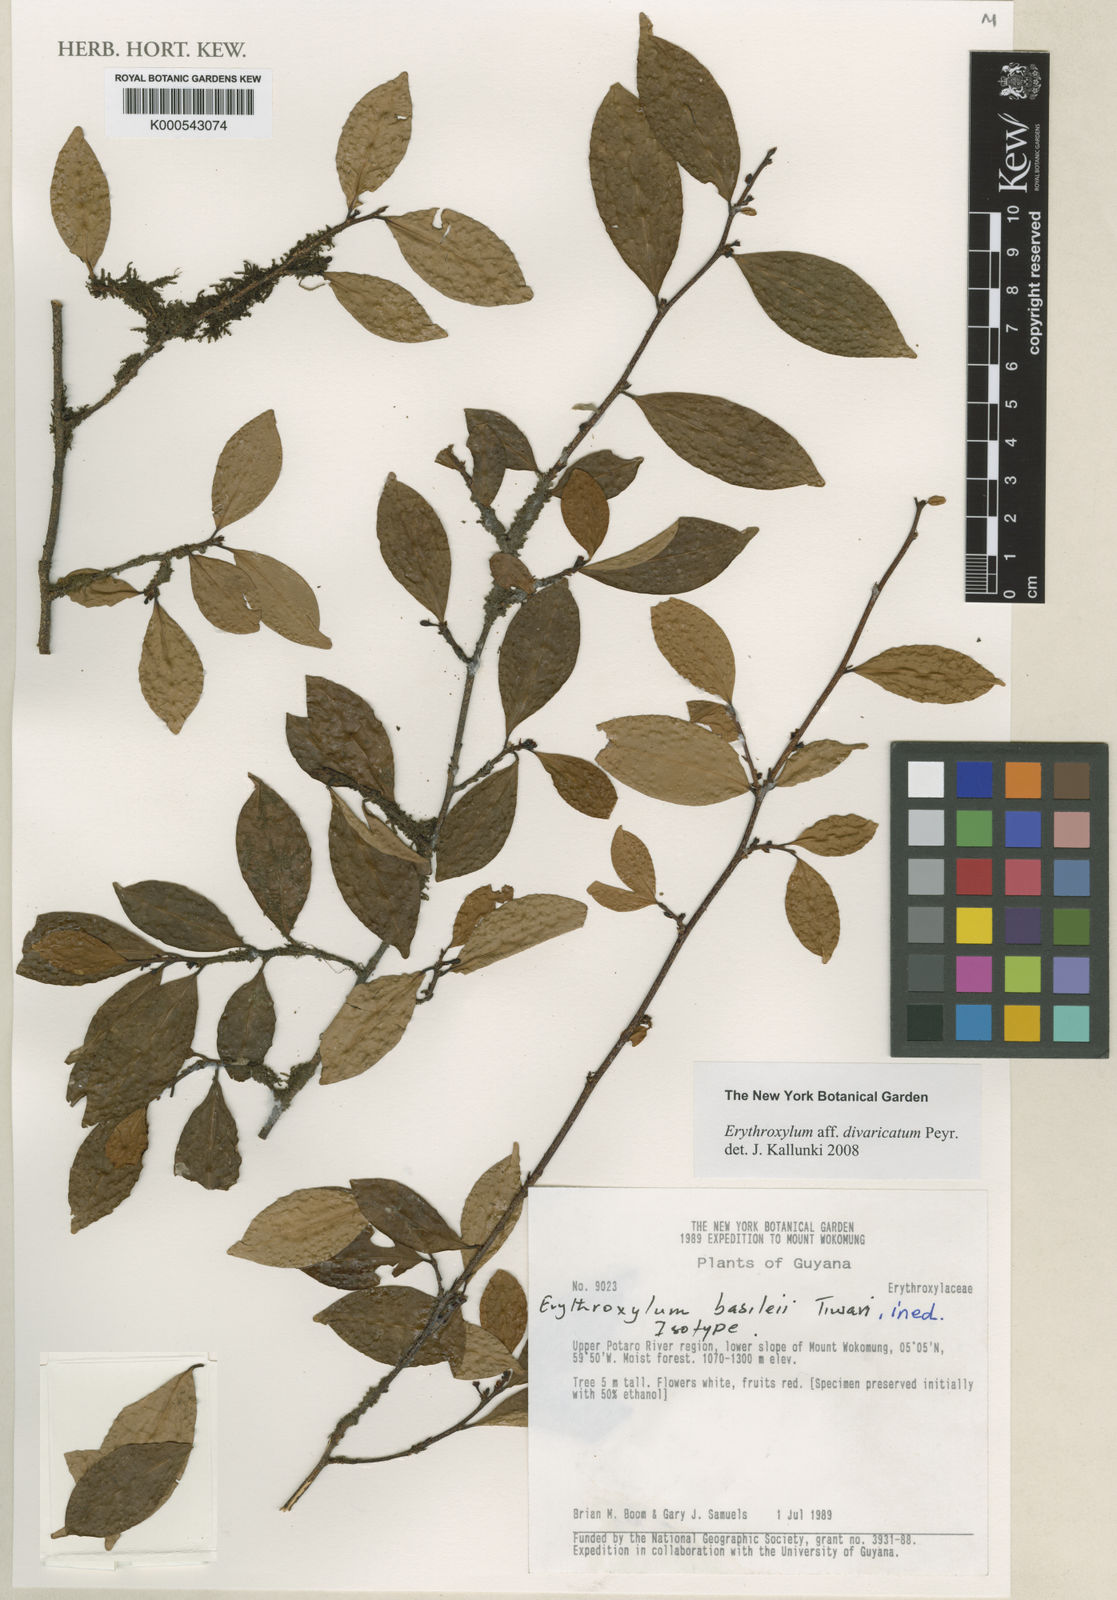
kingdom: Plantae
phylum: Tracheophyta
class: Magnoliopsida
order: Malpighiales
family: Erythroxylaceae
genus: Erythroxylum
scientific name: Erythroxylum
